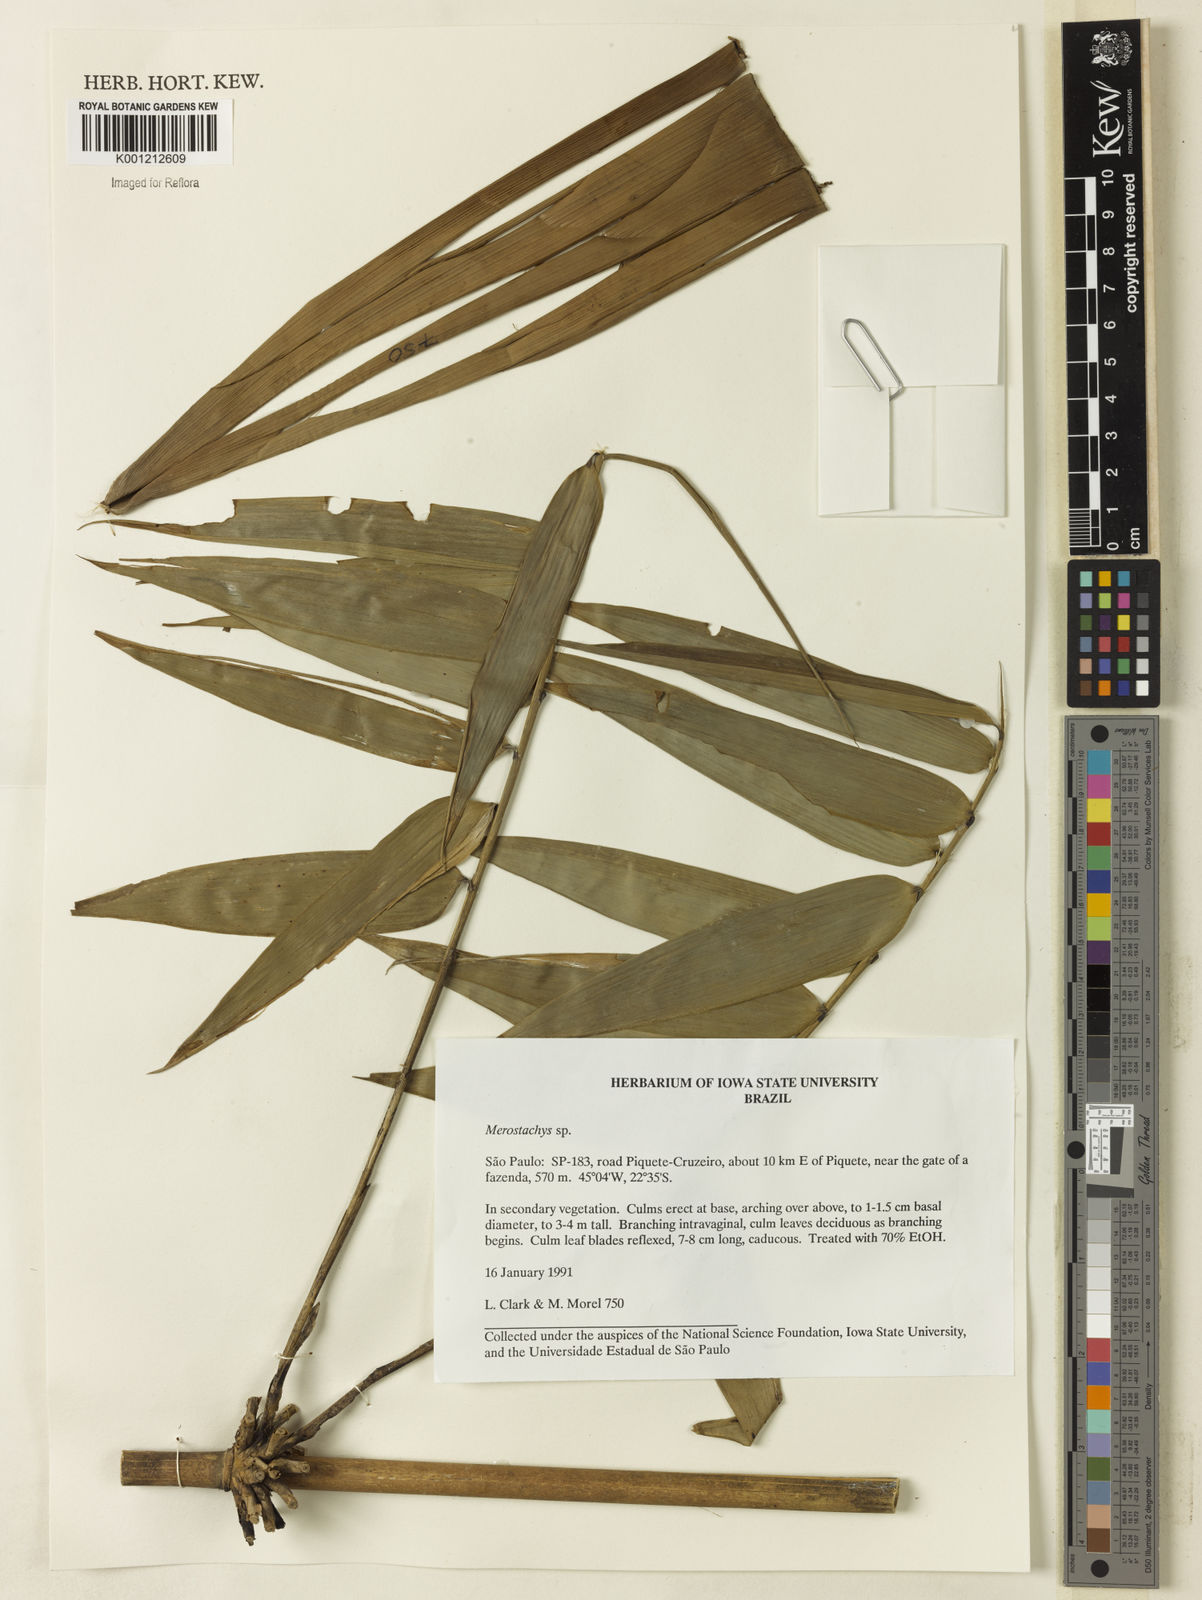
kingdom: Plantae
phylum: Tracheophyta
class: Liliopsida
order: Poales
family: Poaceae
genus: Merostachys
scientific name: Merostachys
